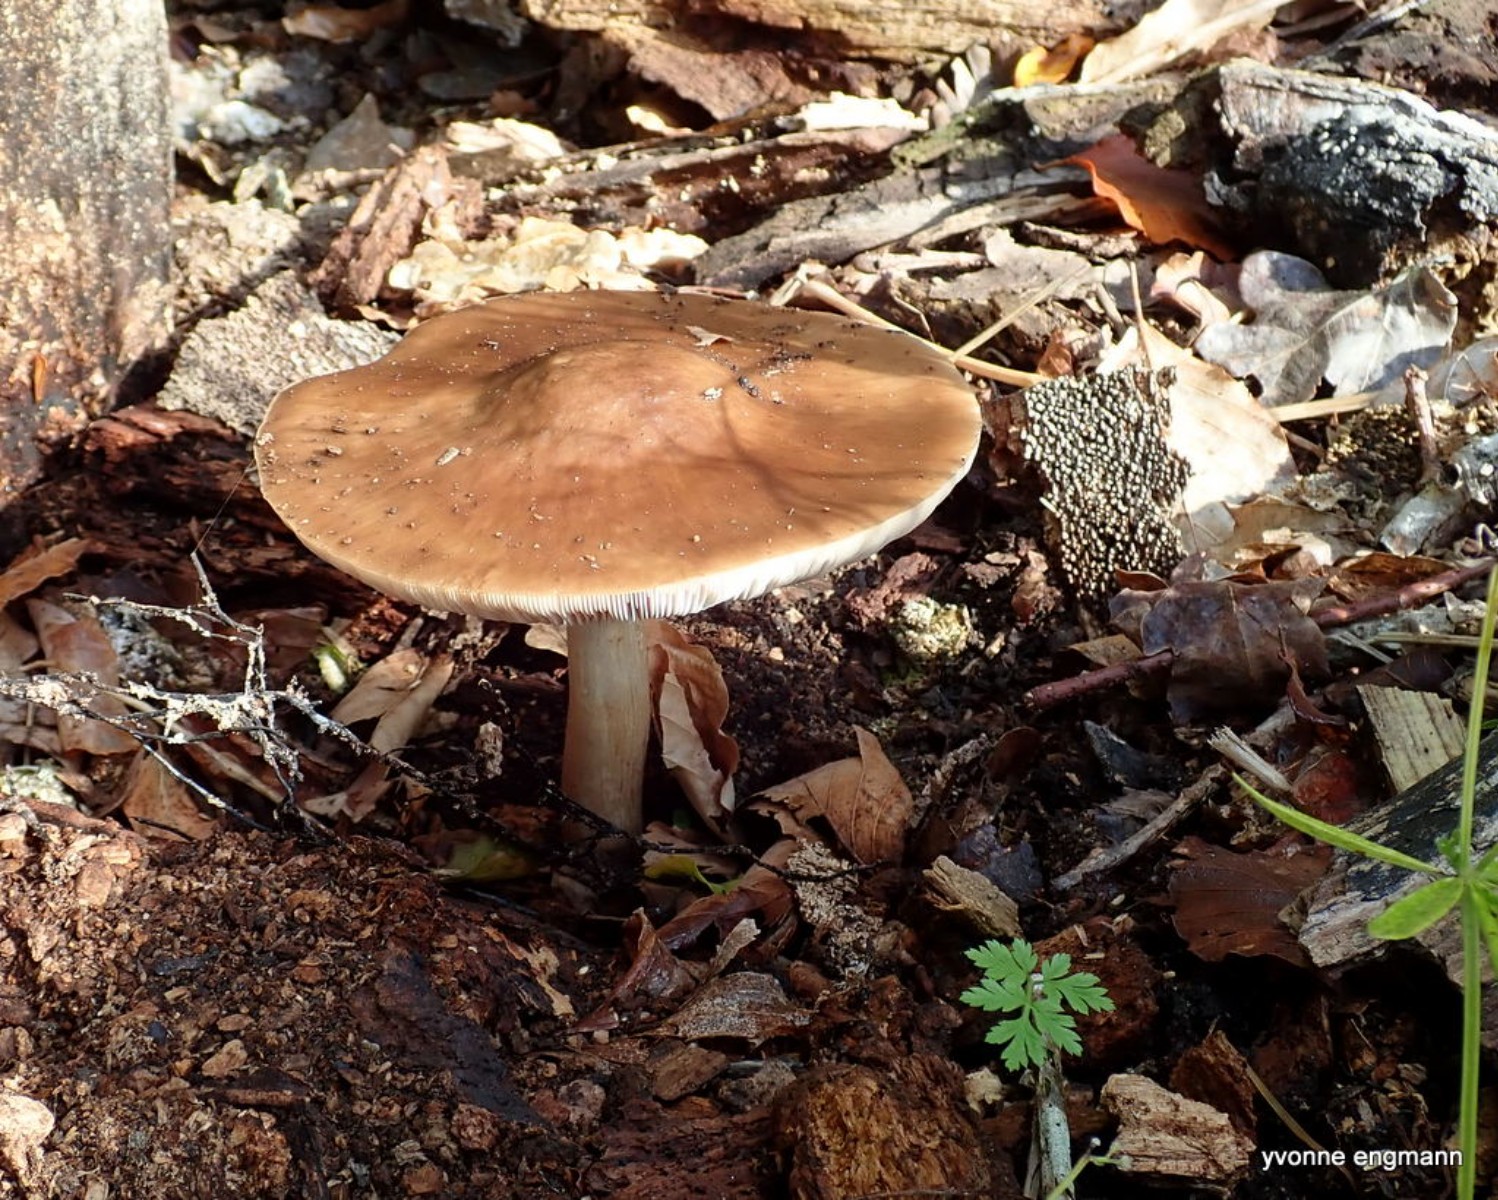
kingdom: Fungi
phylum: Basidiomycota
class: Agaricomycetes
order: Agaricales
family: Pluteaceae
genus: Pluteus
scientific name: Pluteus cervinus
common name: sodfarvet skærmhat
